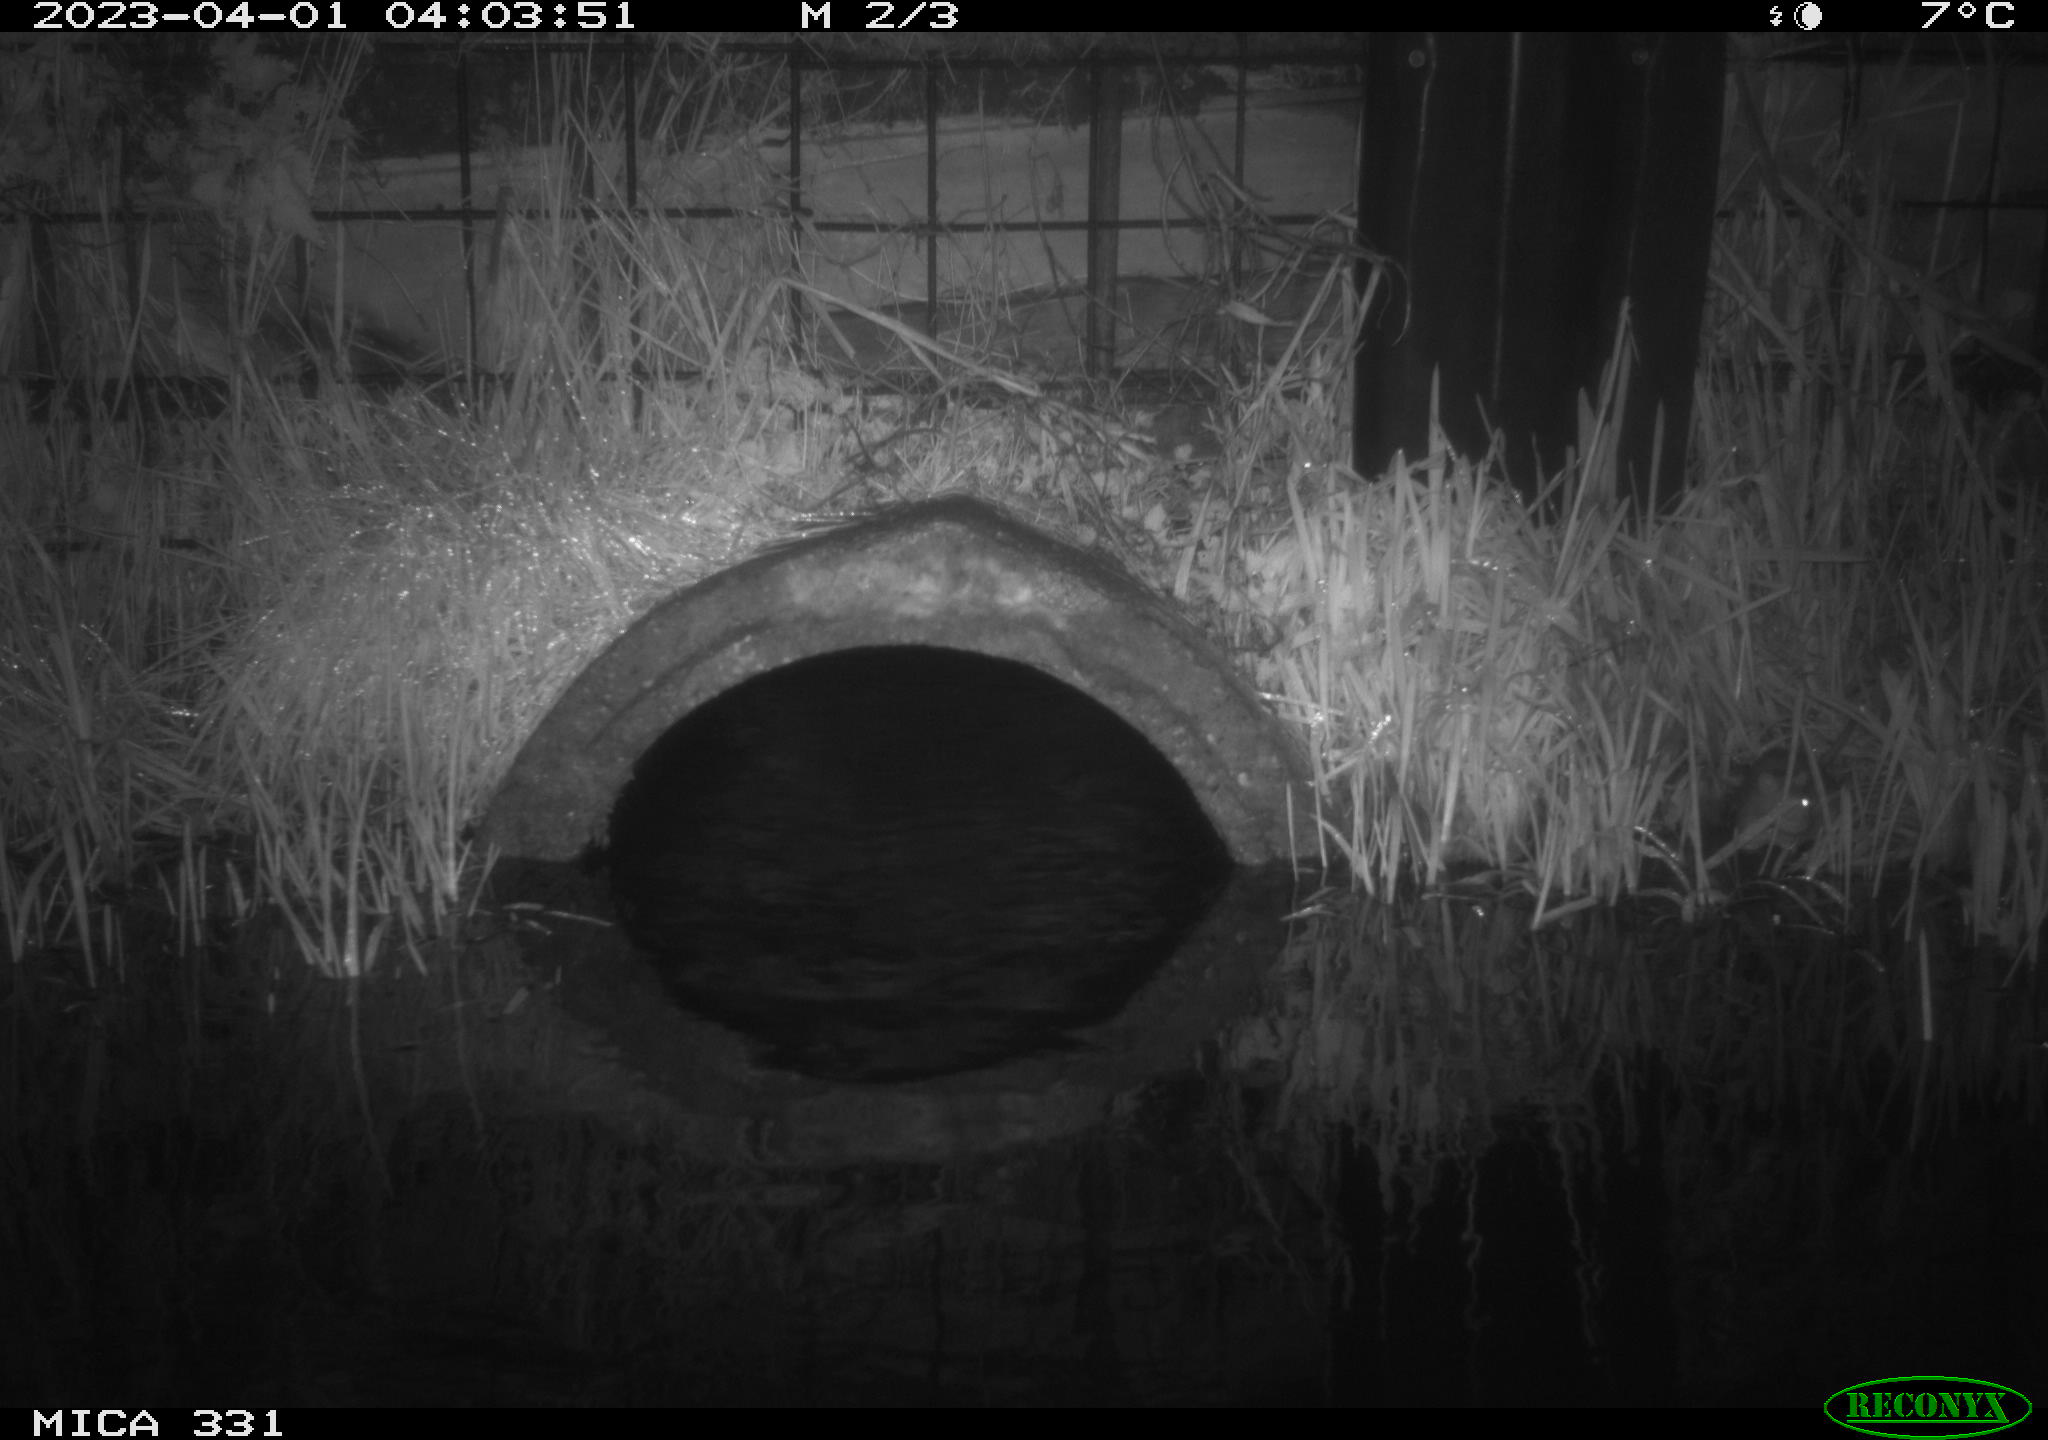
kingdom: Animalia
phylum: Chordata
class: Mammalia
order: Rodentia
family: Muridae
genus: Rattus
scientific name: Rattus norvegicus
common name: Brown rat
